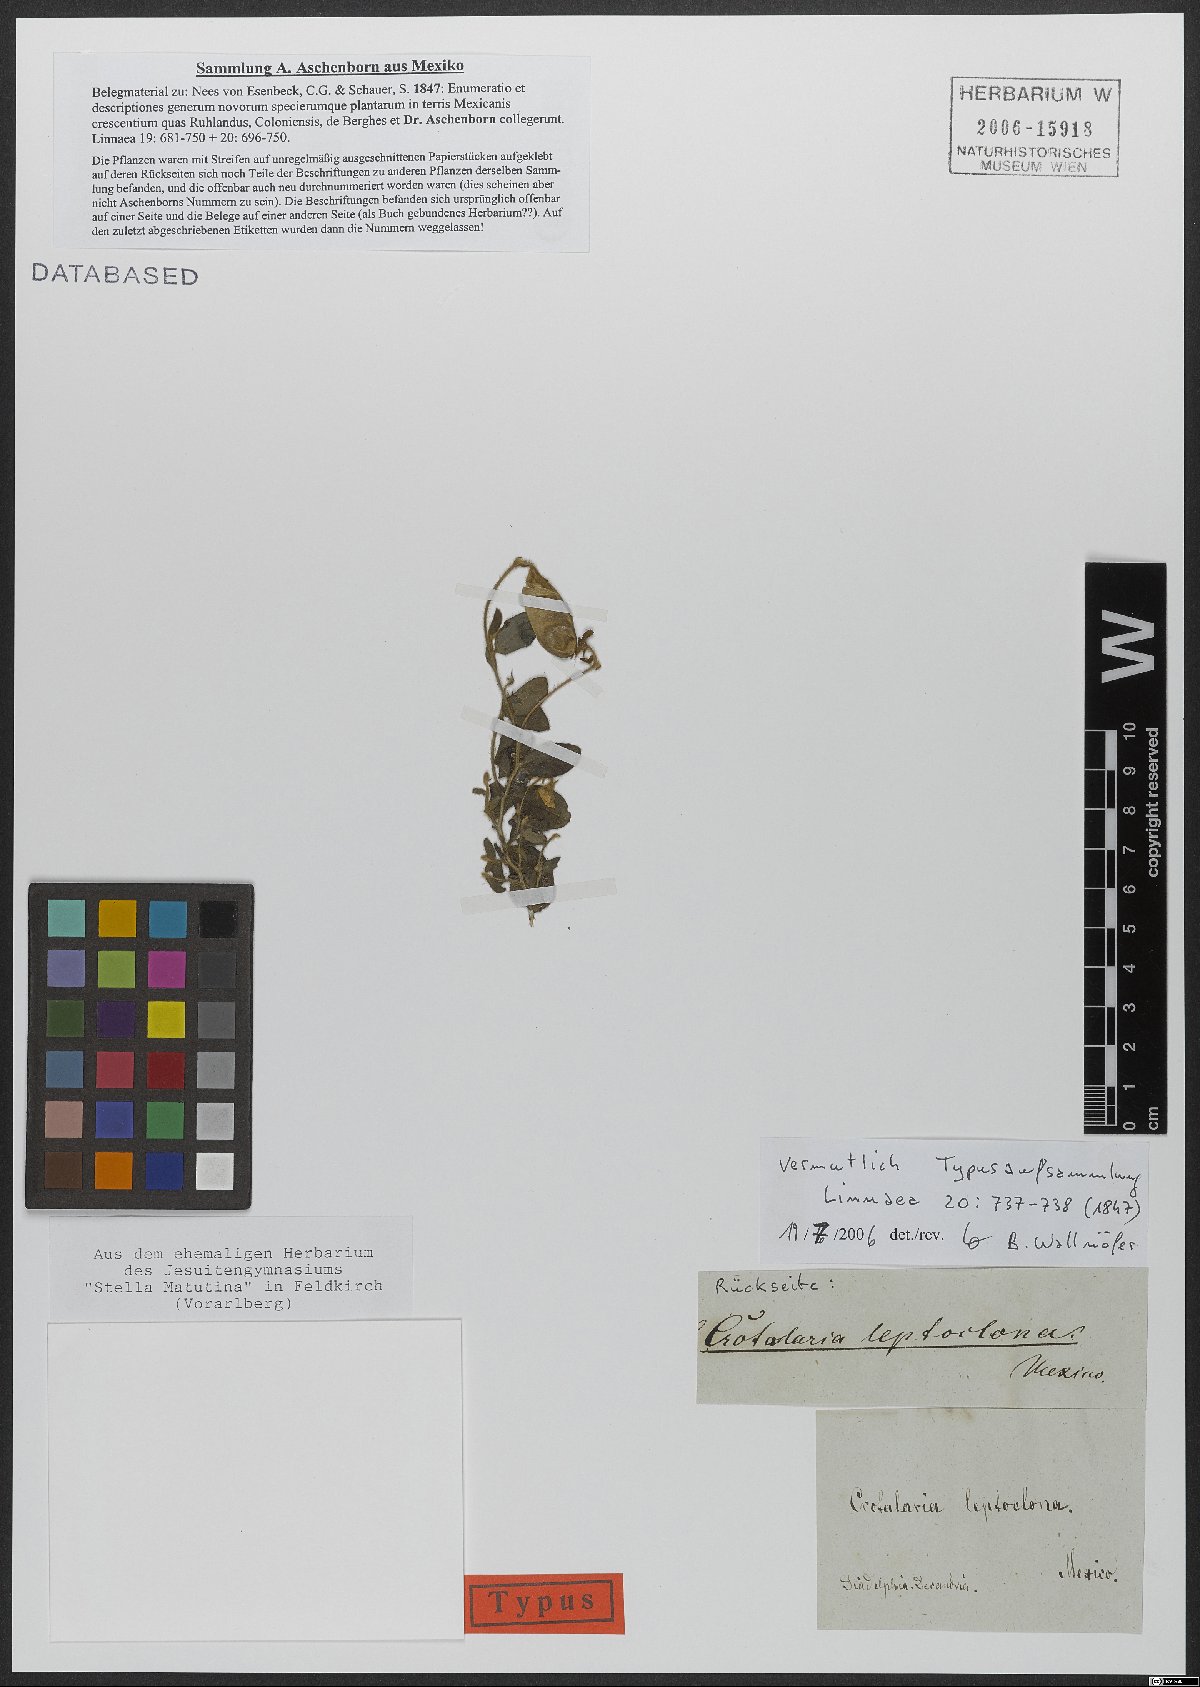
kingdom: Plantae
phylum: Tracheophyta
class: Magnoliopsida
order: Fabales
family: Fabaceae
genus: Crotalaria
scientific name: Crotalaria rotundifolia
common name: Prostrate rattlebox
